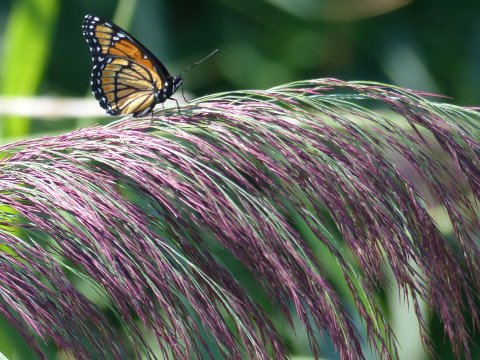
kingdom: Animalia
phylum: Arthropoda
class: Insecta
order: Lepidoptera
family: Nymphalidae
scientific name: Nymphalidae
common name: Brushfoots
